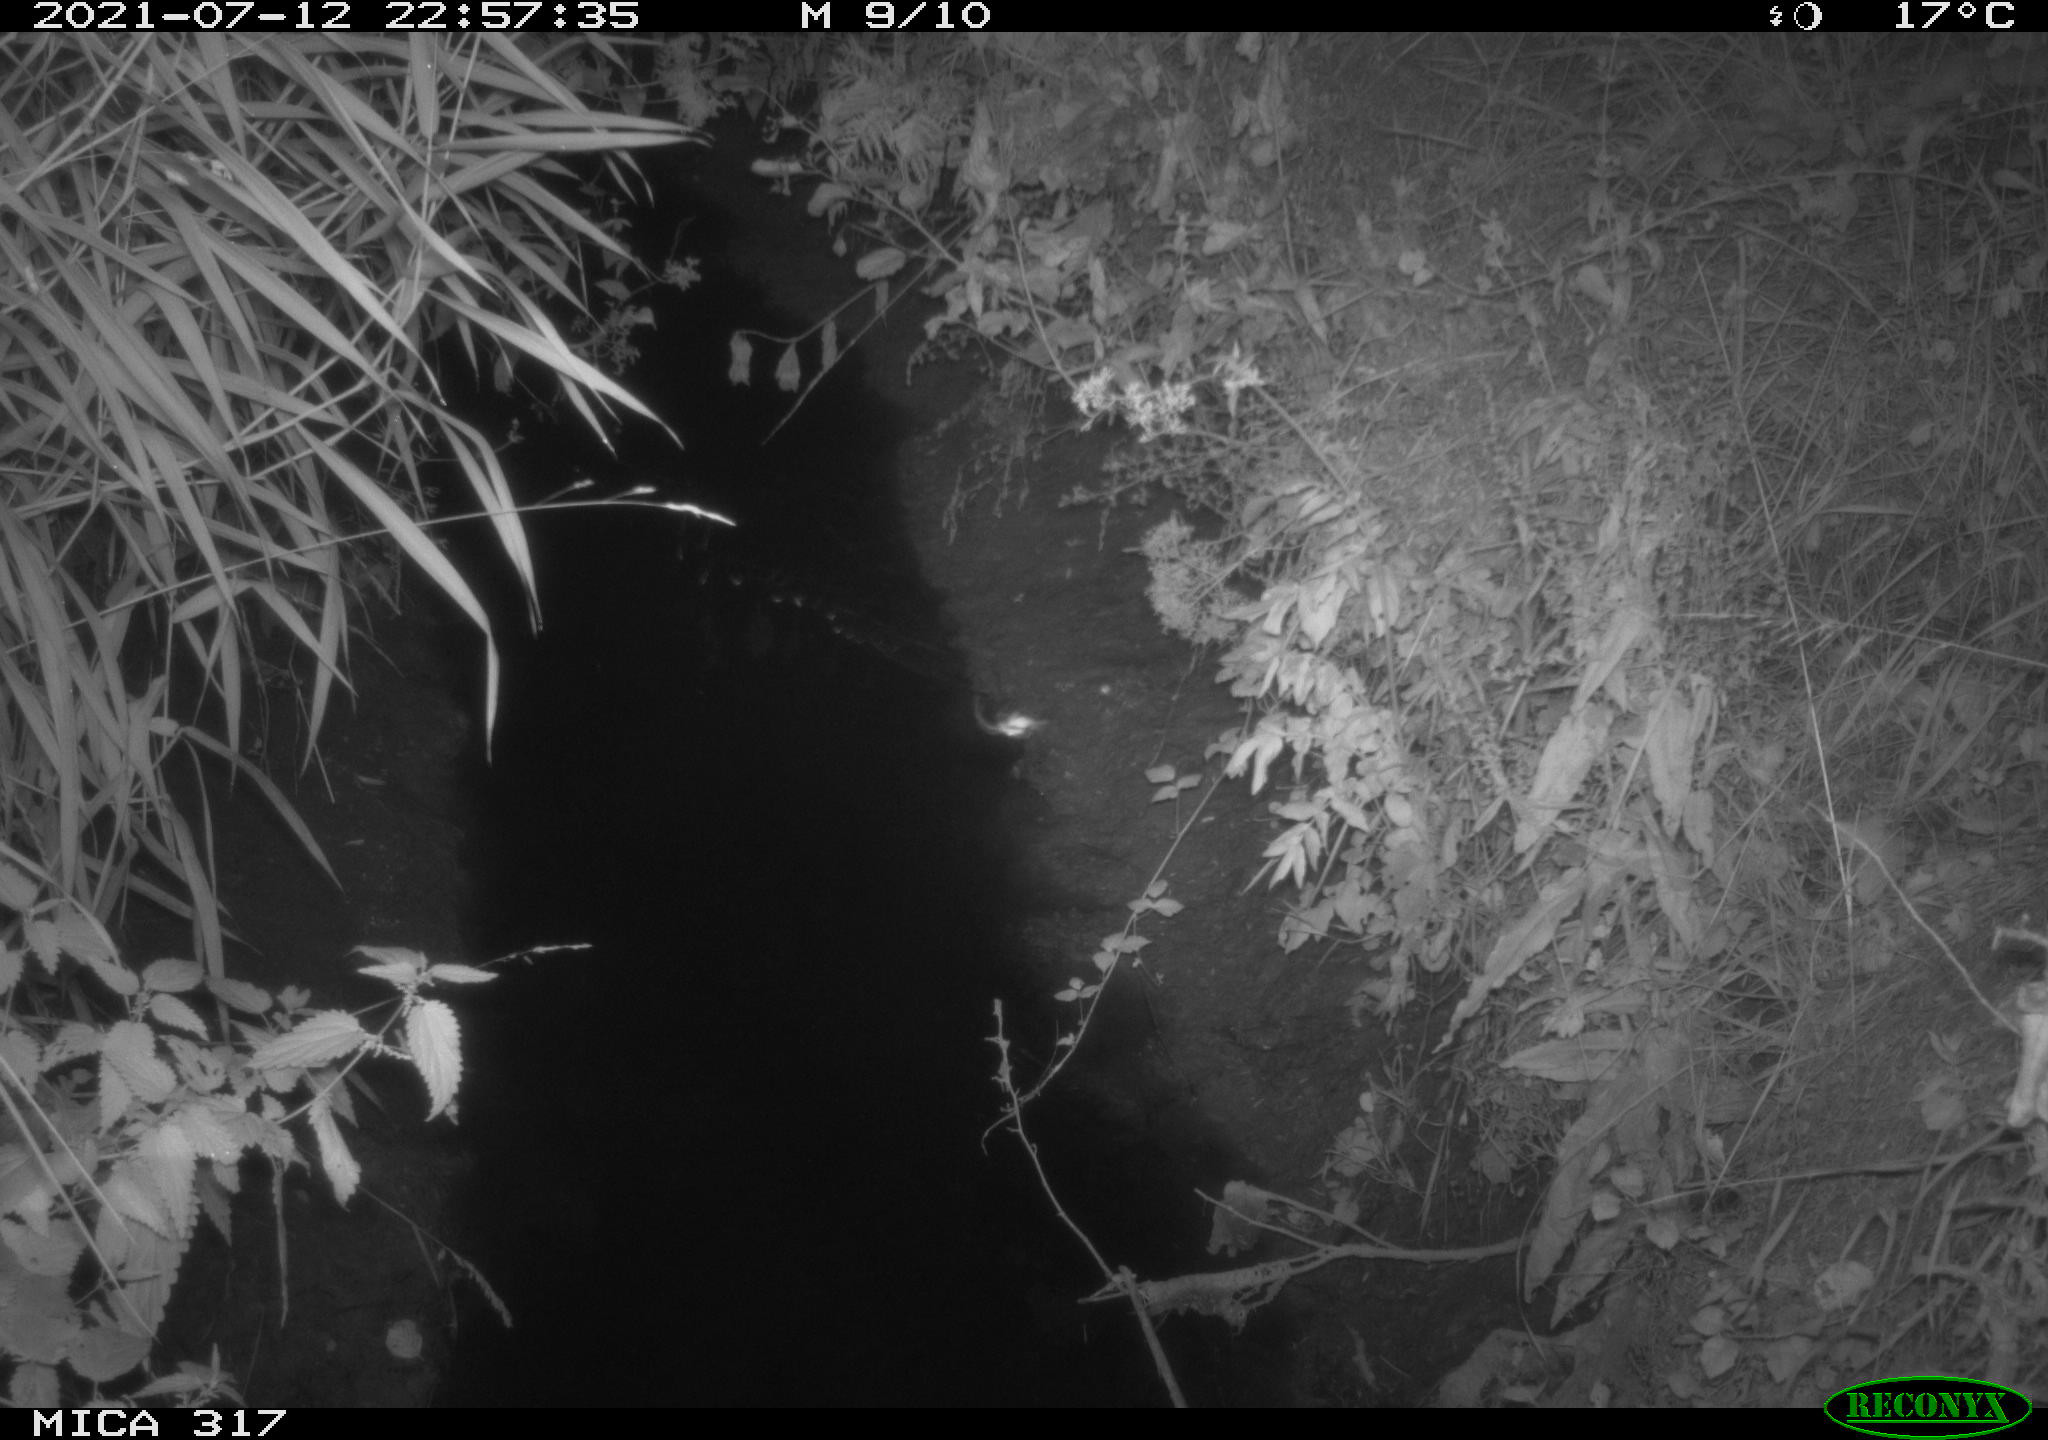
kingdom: Animalia
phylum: Chordata
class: Mammalia
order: Rodentia
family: Muridae
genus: Rattus
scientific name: Rattus norvegicus
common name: Brown rat
